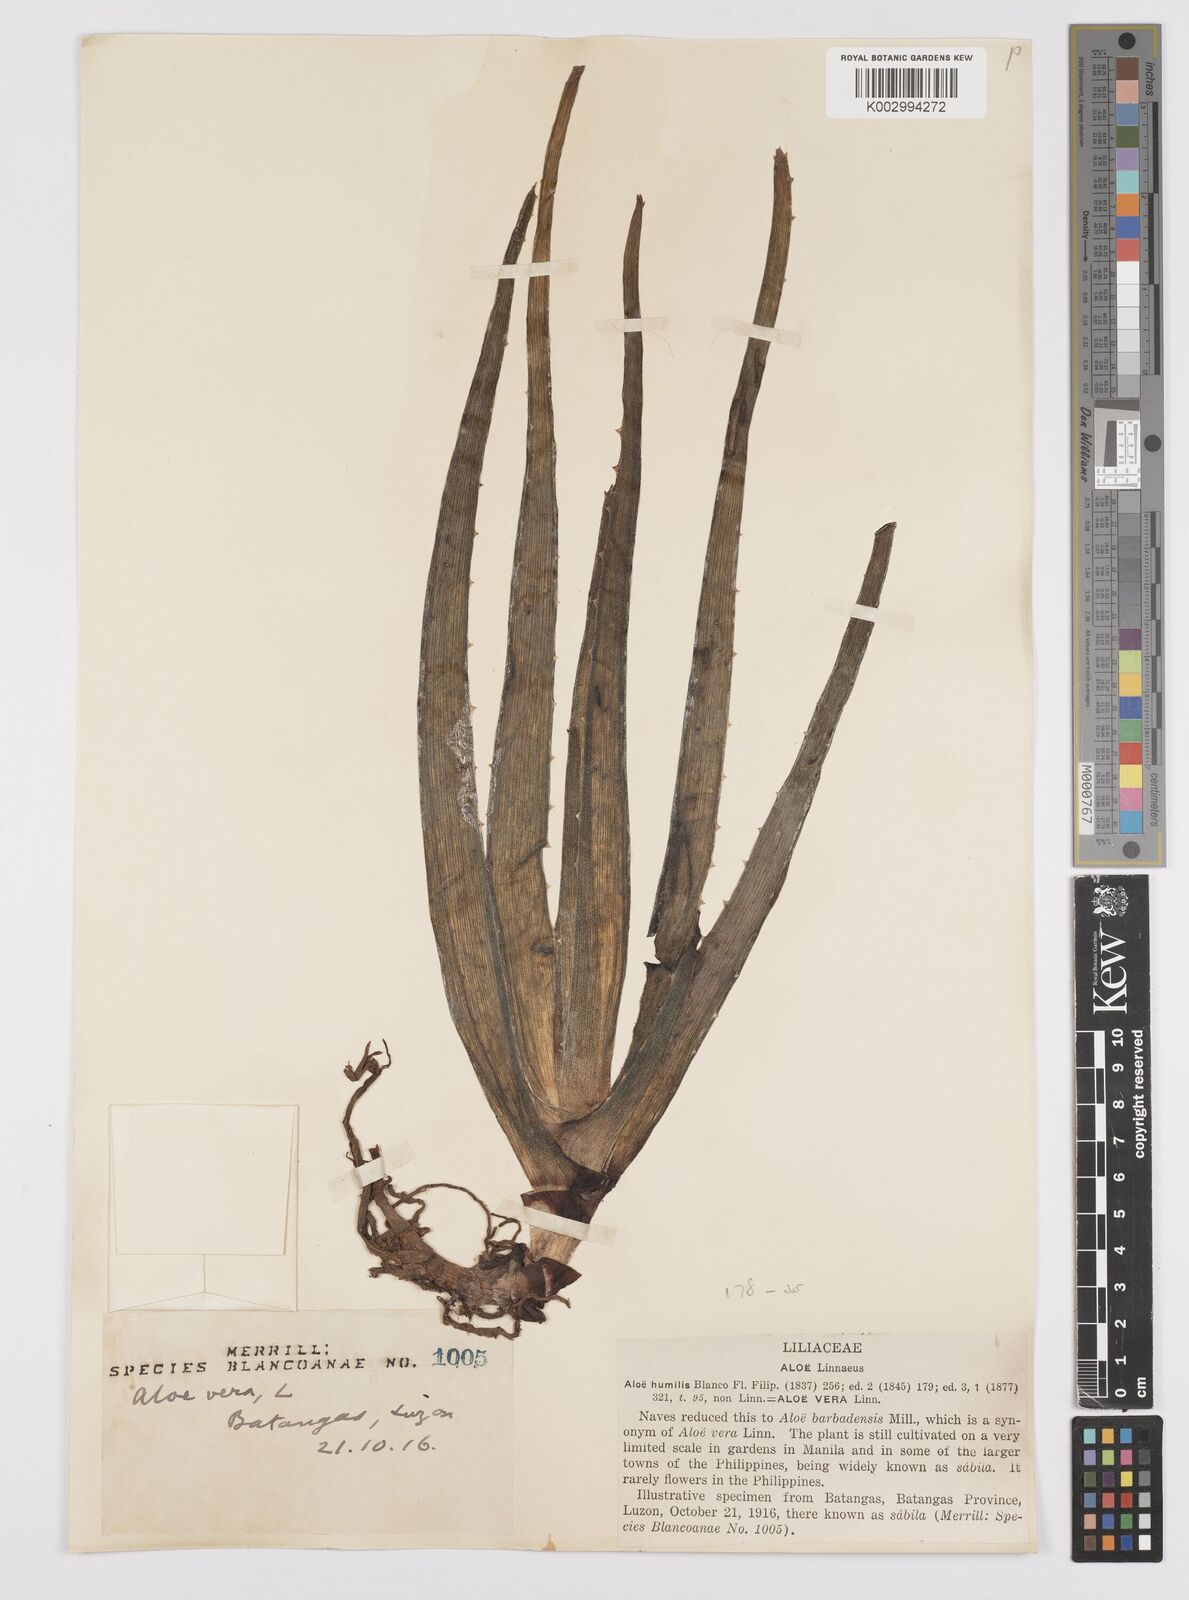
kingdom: Plantae
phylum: Tracheophyta
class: Liliopsida
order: Asparagales
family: Asphodelaceae
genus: Aloe
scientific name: Aloe vera
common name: Barbados aloe
